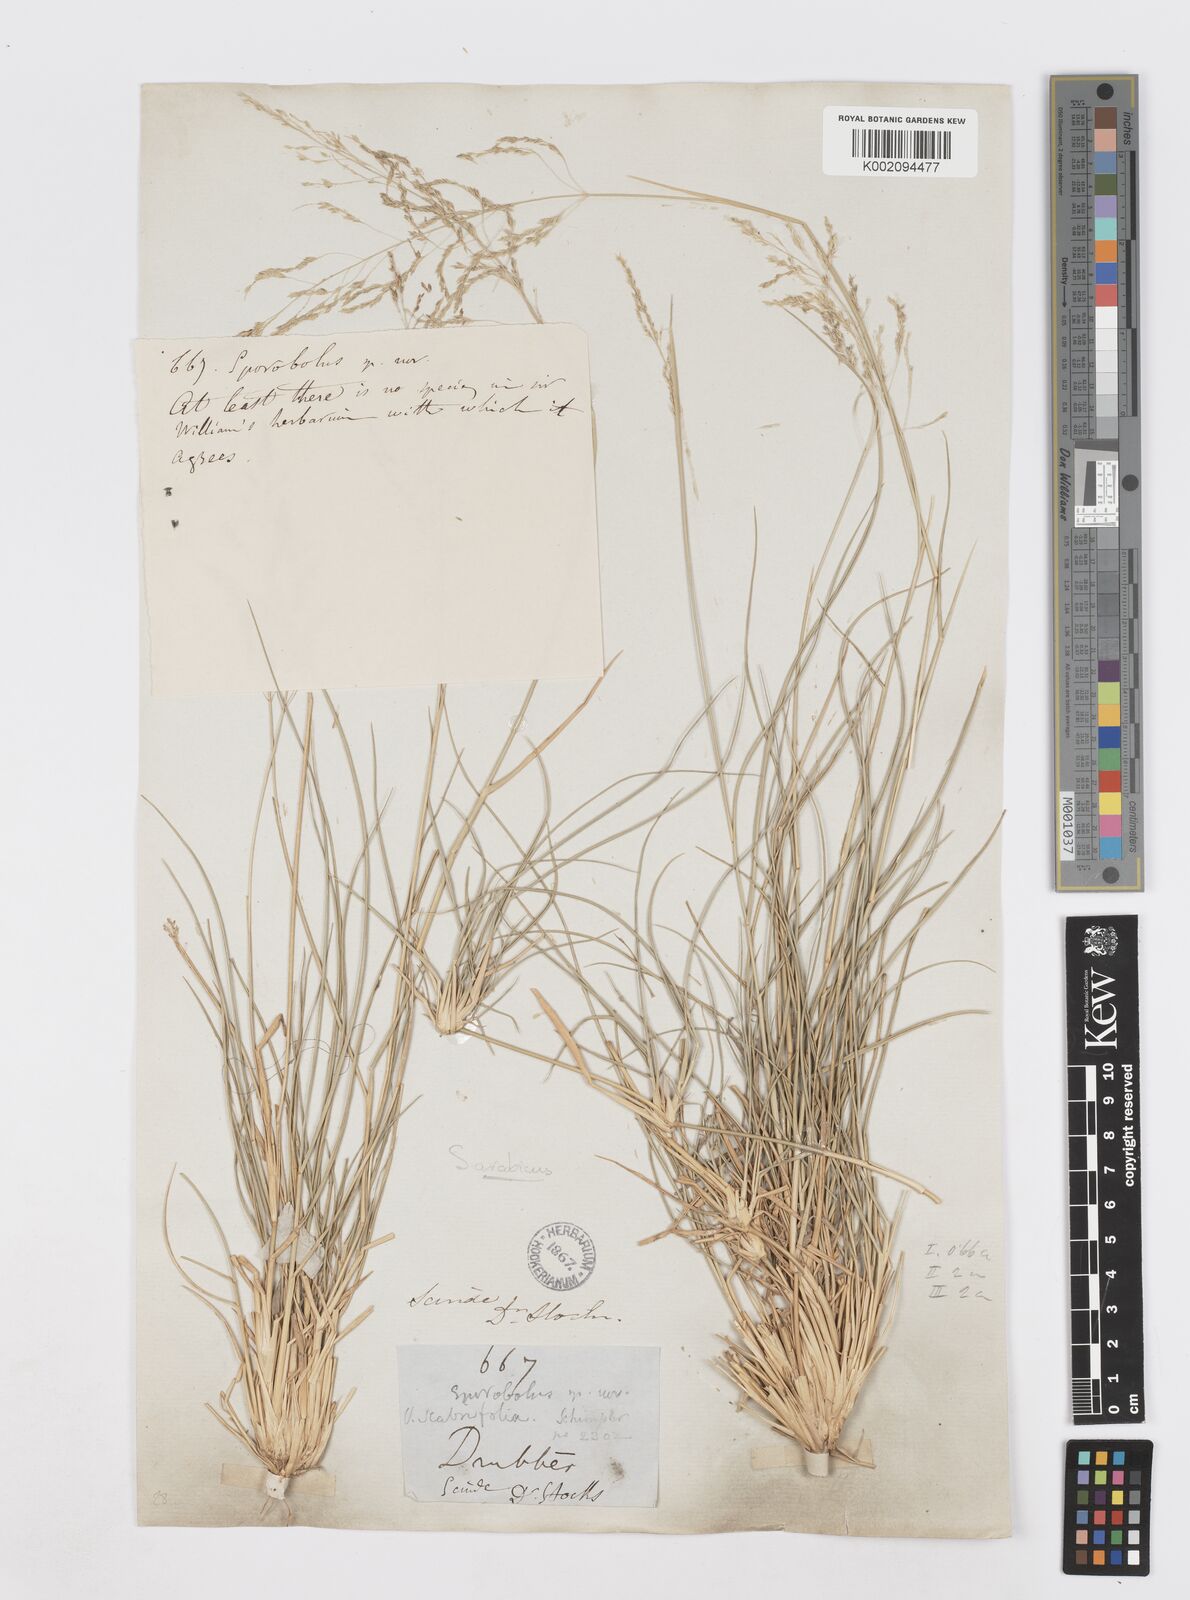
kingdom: Plantae
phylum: Tracheophyta
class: Liliopsida
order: Poales
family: Poaceae
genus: Sporobolus
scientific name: Sporobolus ioclados
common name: Pan dropseed
